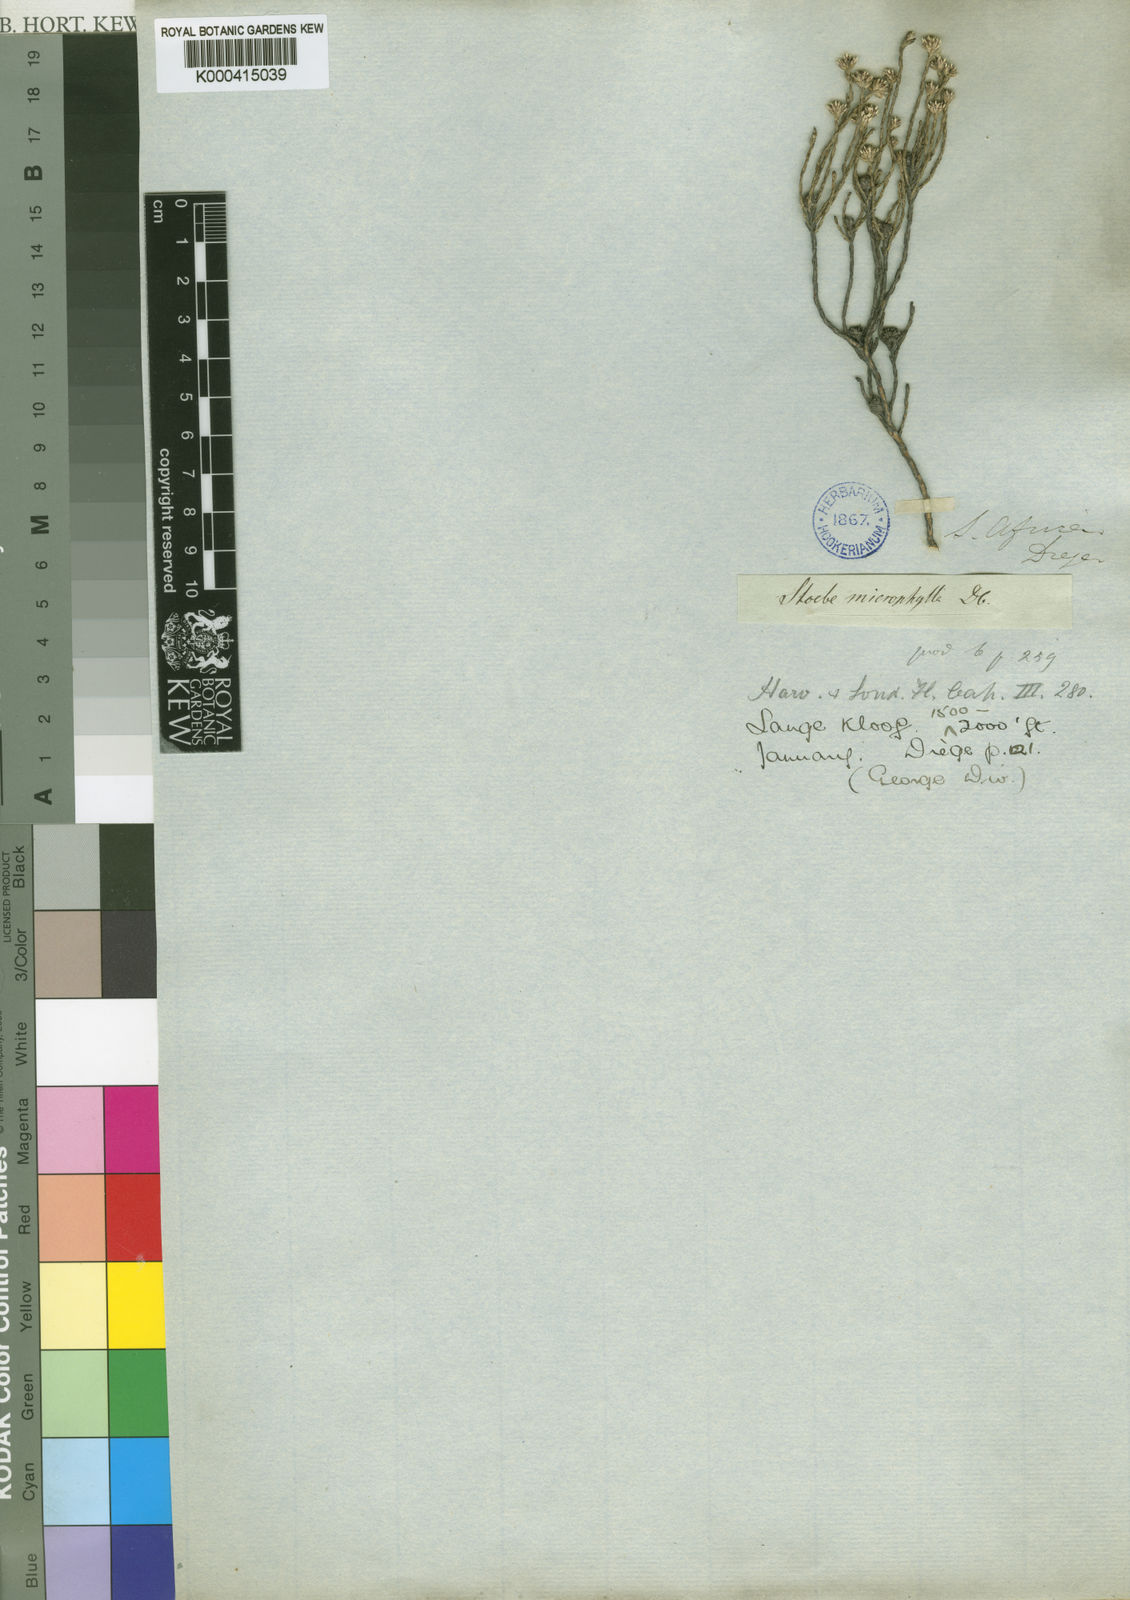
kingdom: Plantae
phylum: Tracheophyta
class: Magnoliopsida
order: Asterales
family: Asteraceae
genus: Stoebe
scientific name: Stoebe microphylla
